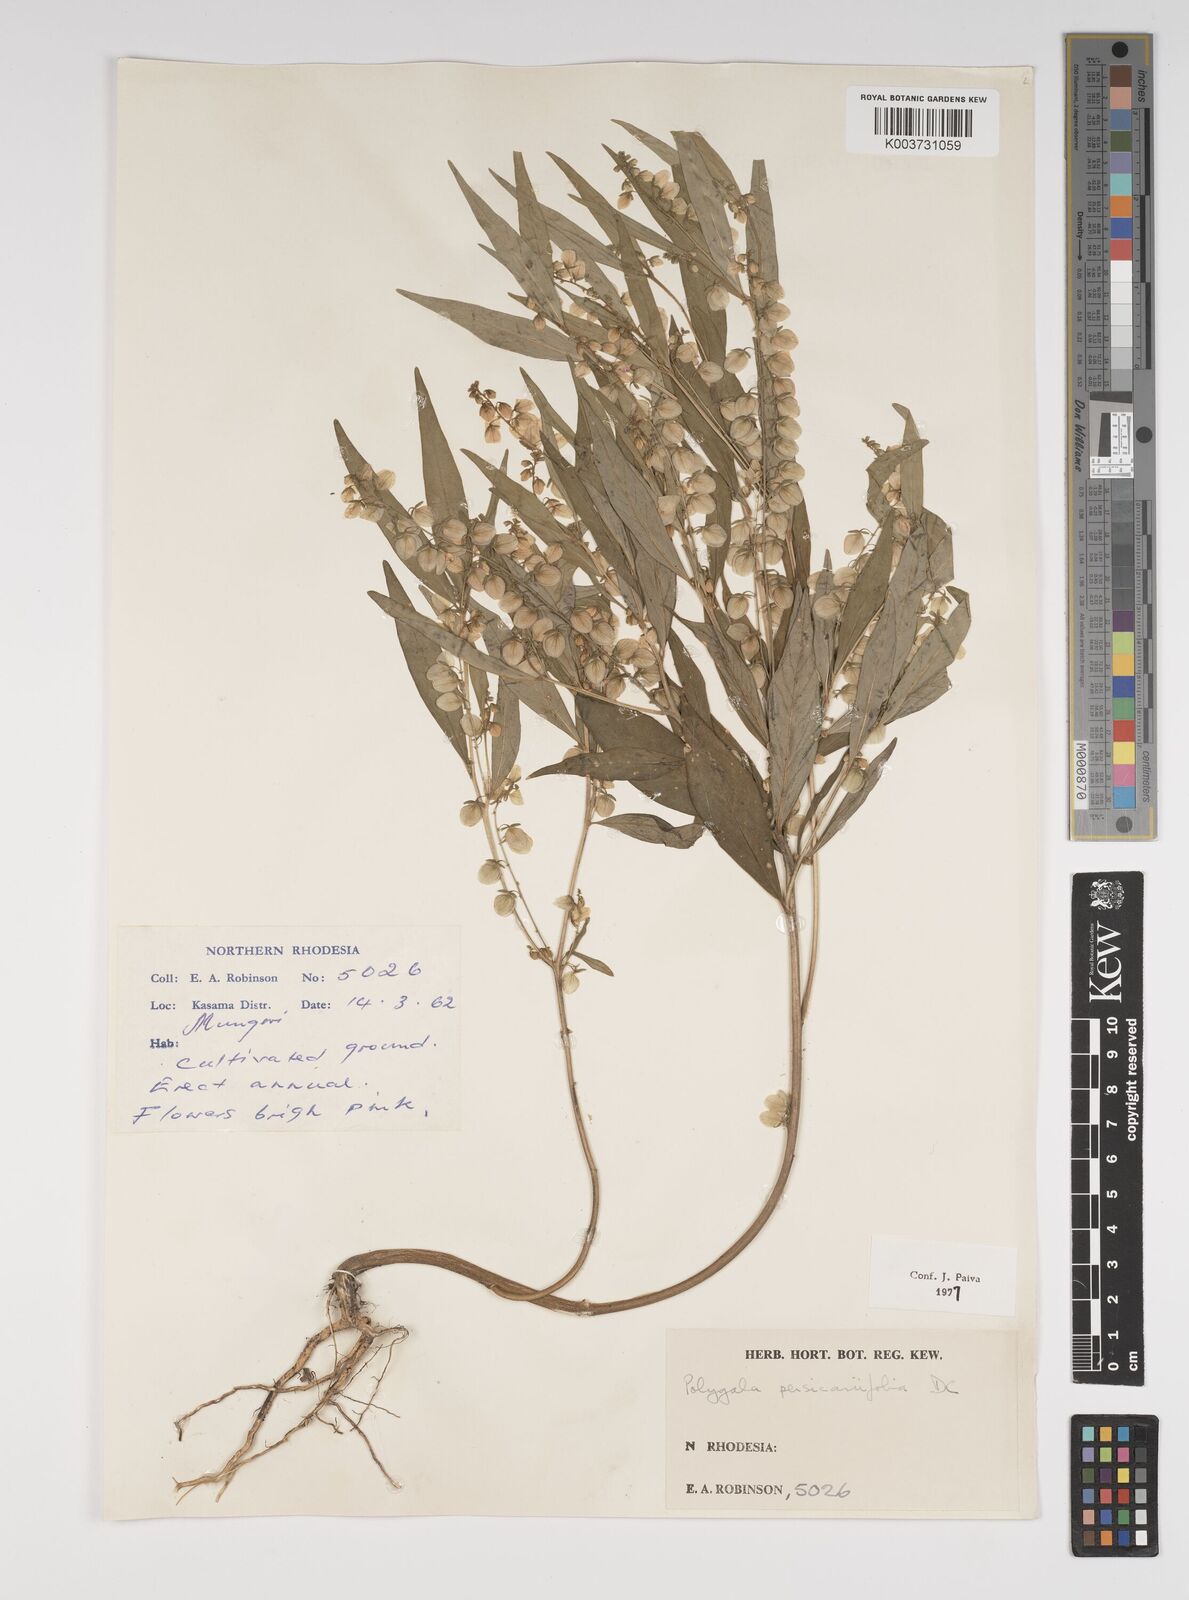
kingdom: Plantae
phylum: Tracheophyta
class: Magnoliopsida
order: Fabales
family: Polygalaceae
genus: Polygala
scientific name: Polygala persicariifolia
